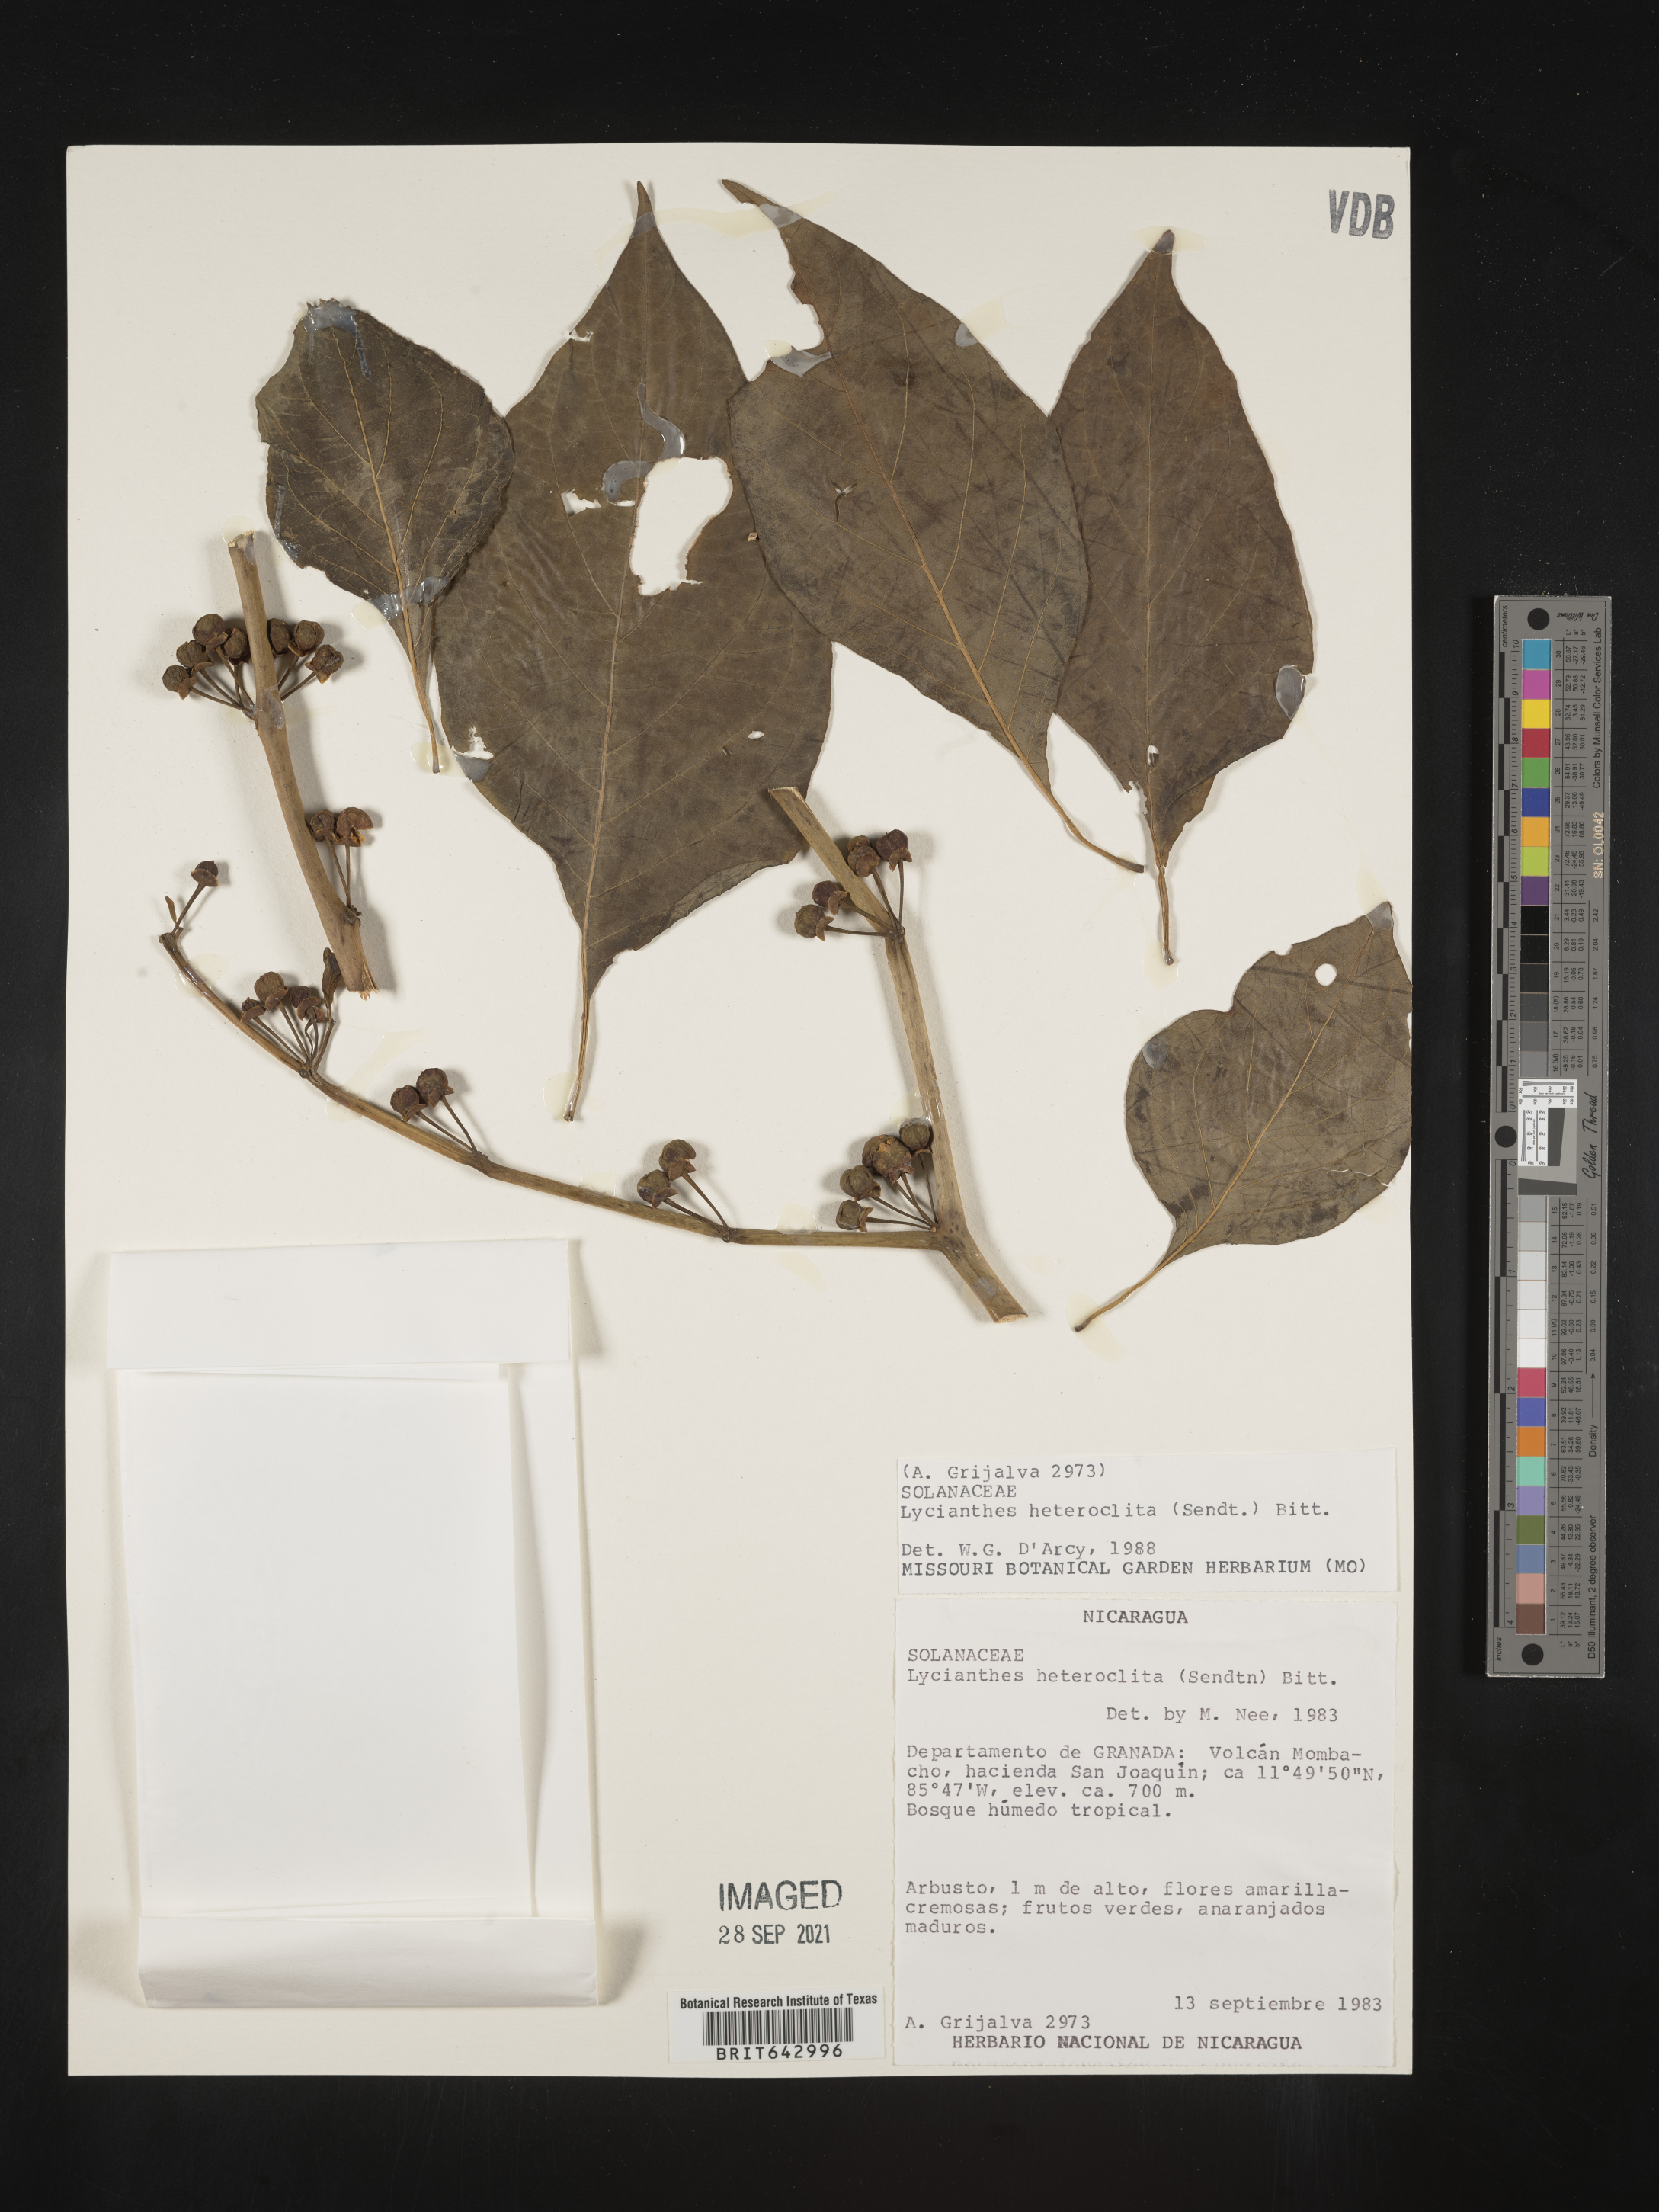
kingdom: Plantae
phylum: Tracheophyta
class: Magnoliopsida
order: Solanales
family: Solanaceae
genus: Lycianthes
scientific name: Lycianthes
